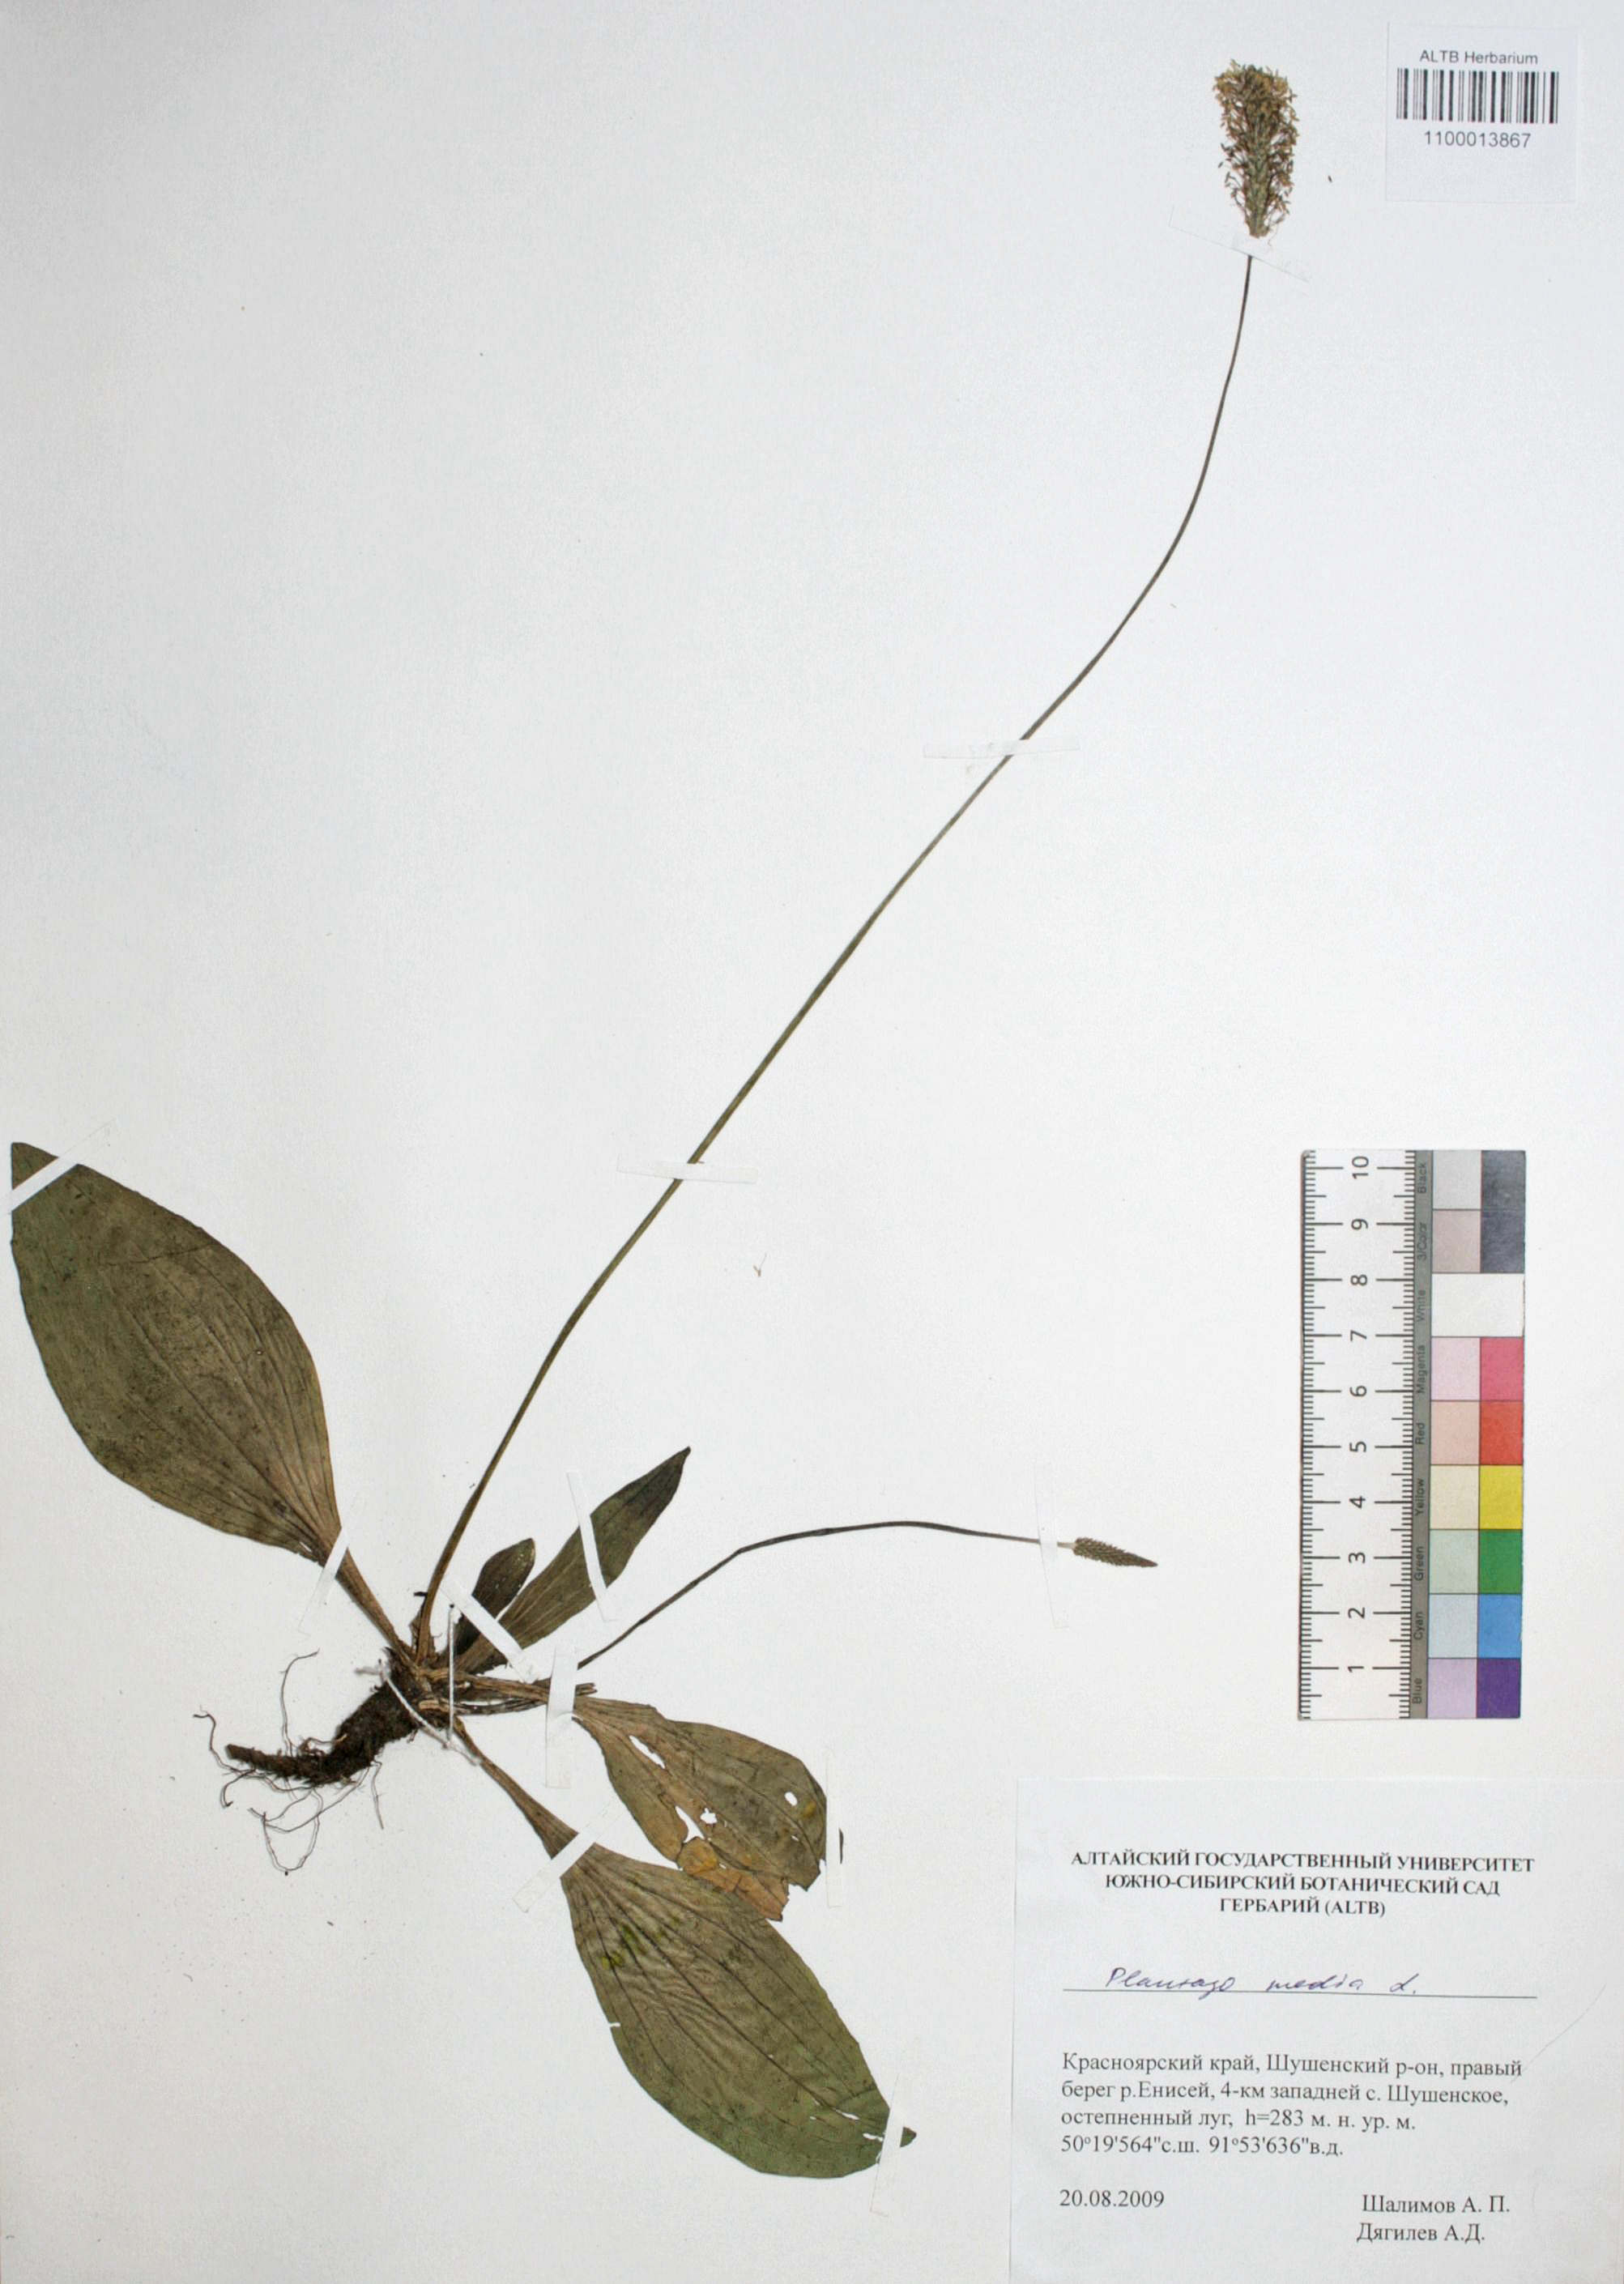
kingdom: Plantae
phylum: Tracheophyta
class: Magnoliopsida
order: Lamiales
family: Plantaginaceae
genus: Plantago
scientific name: Plantago media
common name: Hoary plantain
